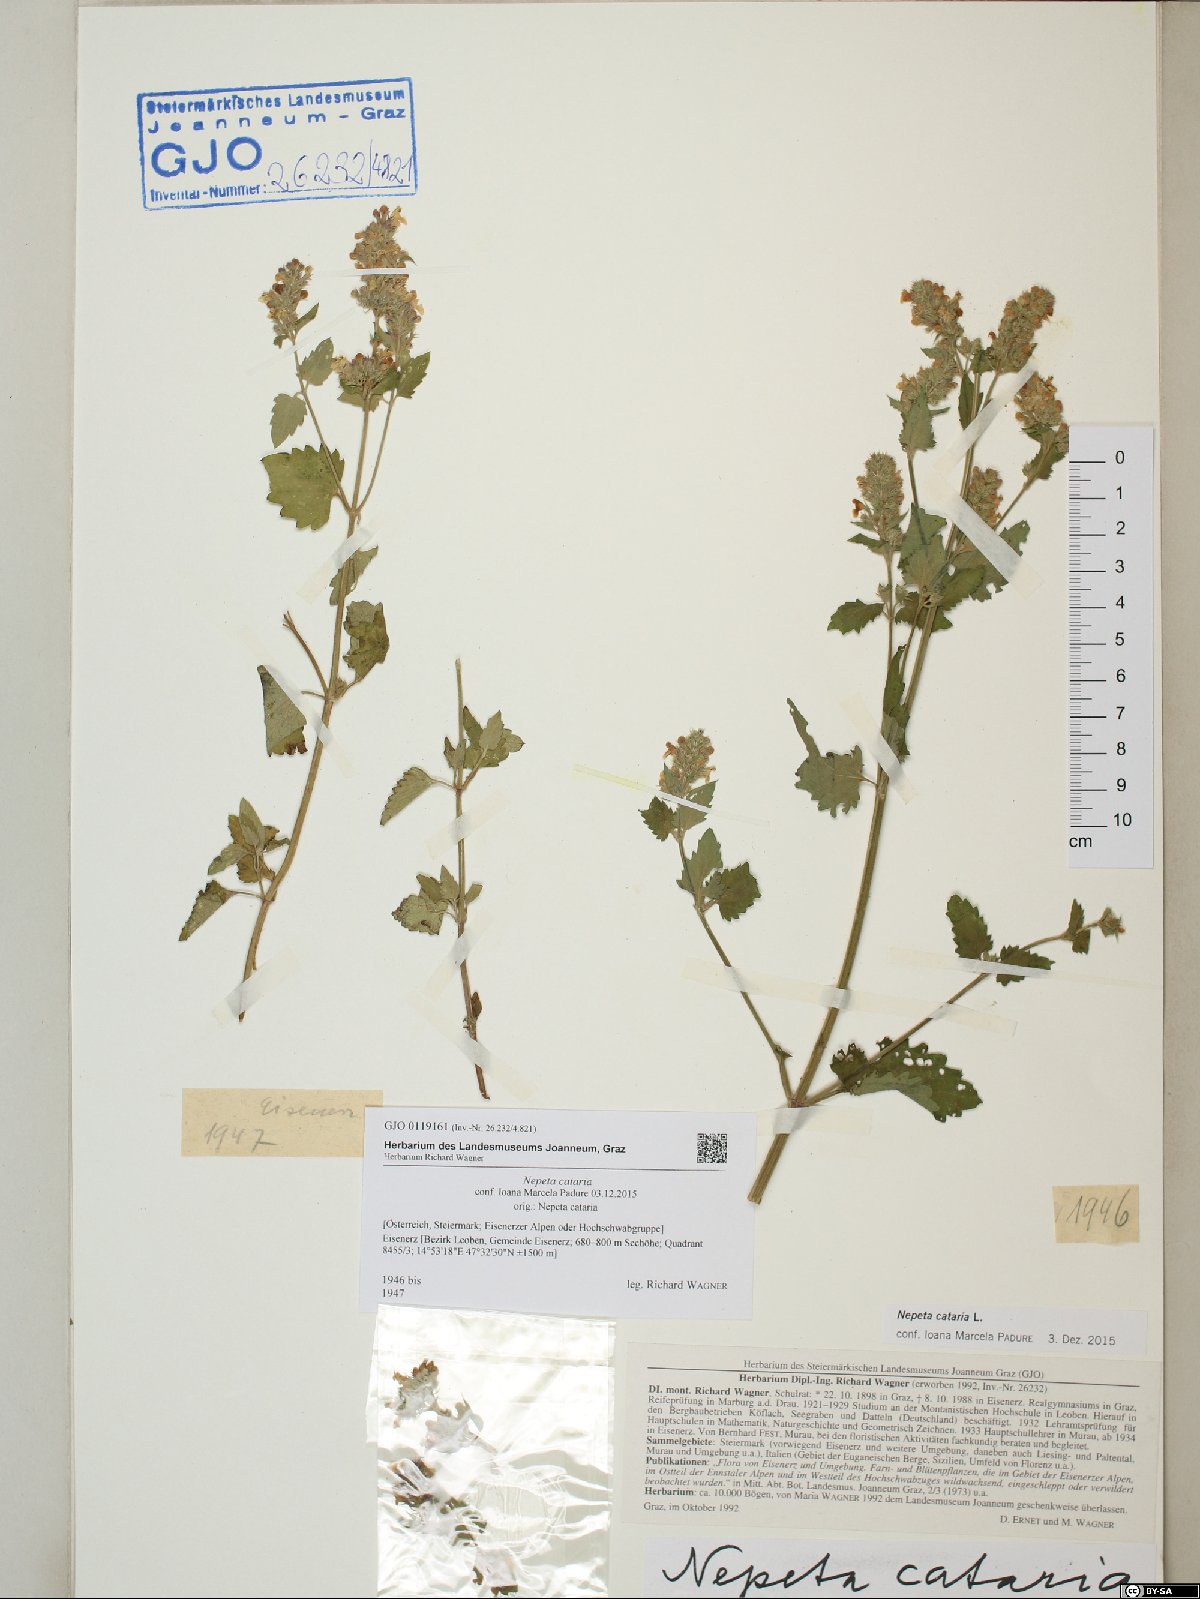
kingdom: Plantae
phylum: Tracheophyta
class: Magnoliopsida
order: Lamiales
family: Lamiaceae
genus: Nepeta
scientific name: Nepeta cataria
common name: Catnip
